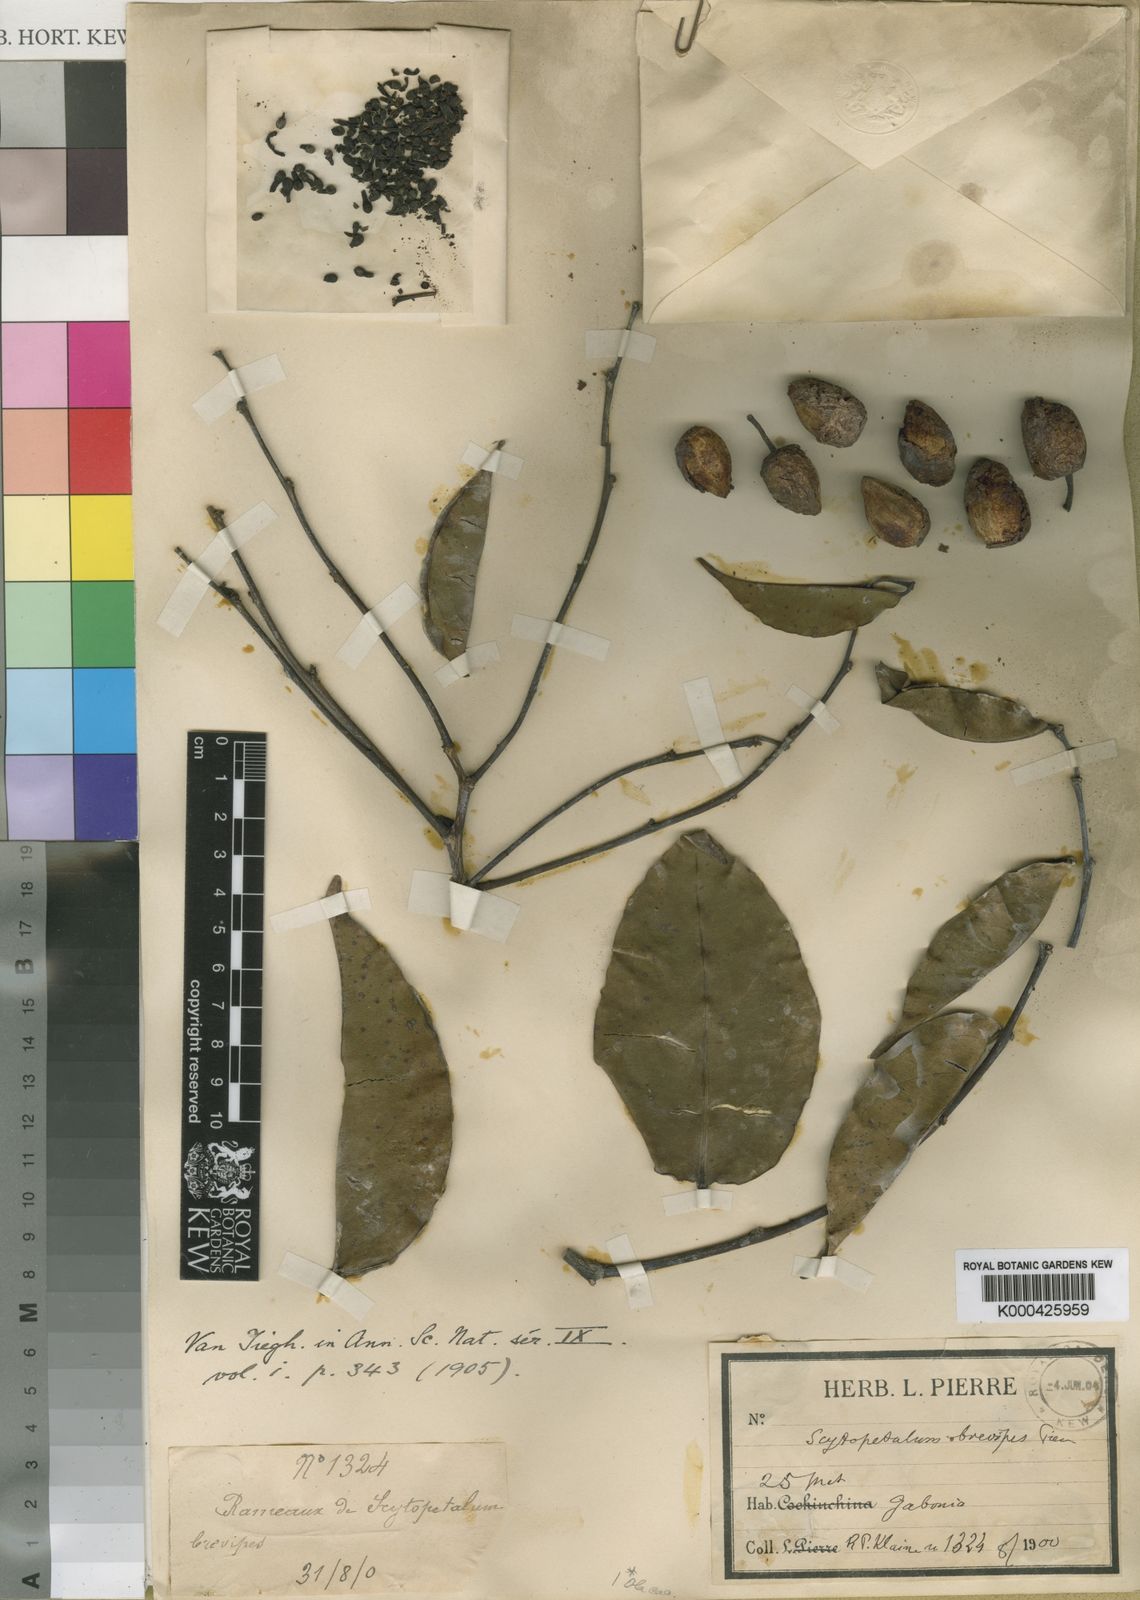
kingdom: Plantae
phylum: Tracheophyta
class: Magnoliopsida
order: Ericales
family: Lecythidaceae
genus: Scytopetalum
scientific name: Scytopetalum klaineanum
